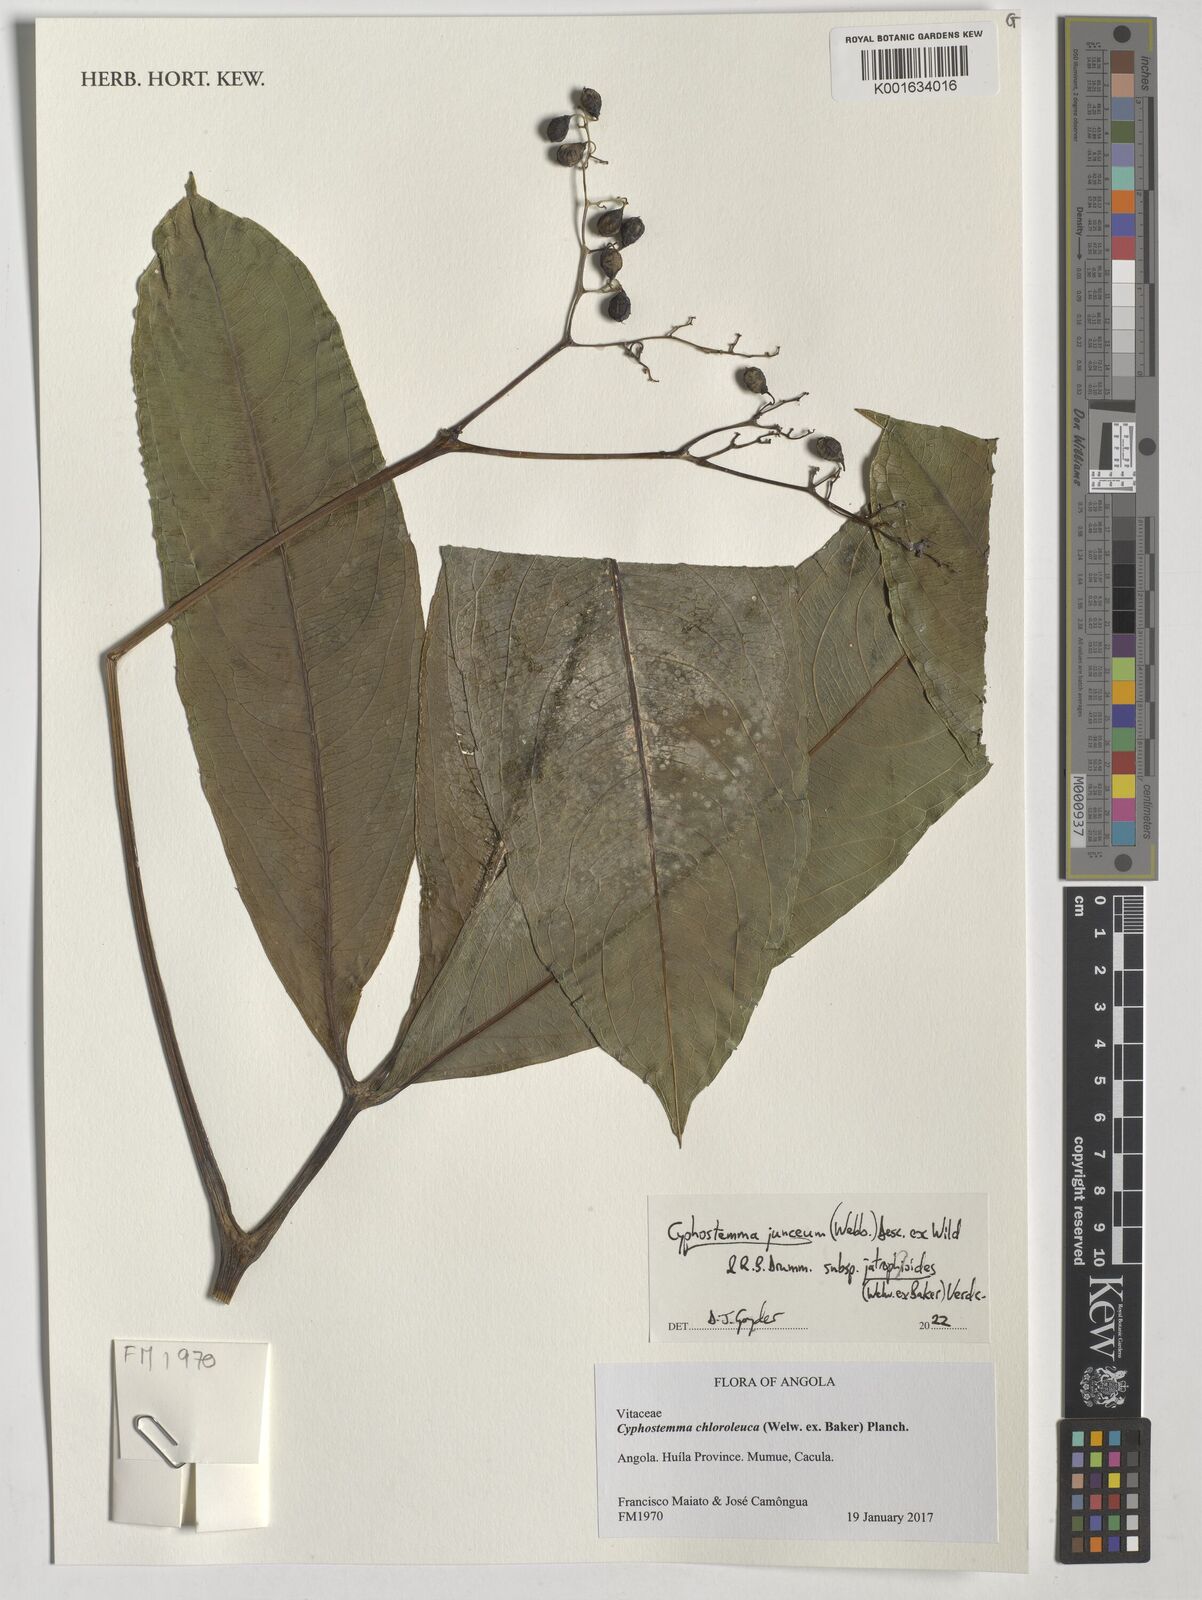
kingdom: Plantae
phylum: Tracheophyta
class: Magnoliopsida
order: Vitales
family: Vitaceae
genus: Cyphostemma
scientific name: Cyphostemma junceum
